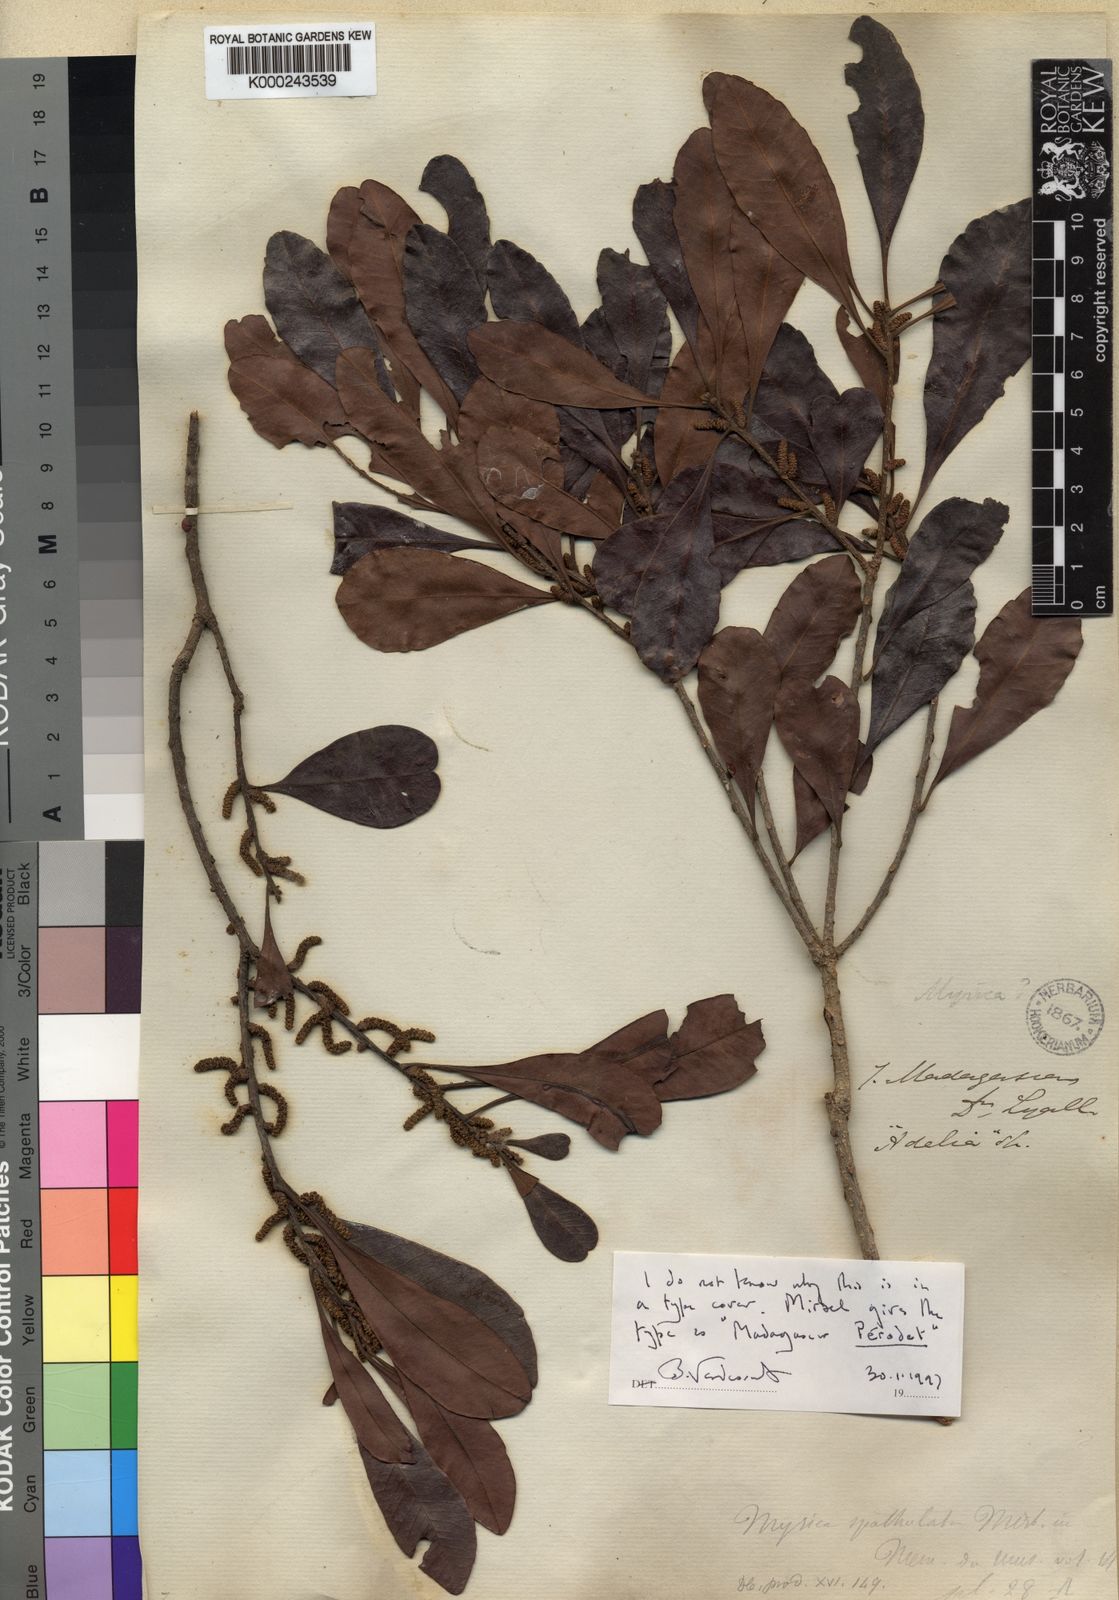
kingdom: Plantae
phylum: Tracheophyta
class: Magnoliopsida
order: Fagales
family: Myricaceae
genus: Morella
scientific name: Morella spathulata
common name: Sofala waxberry
